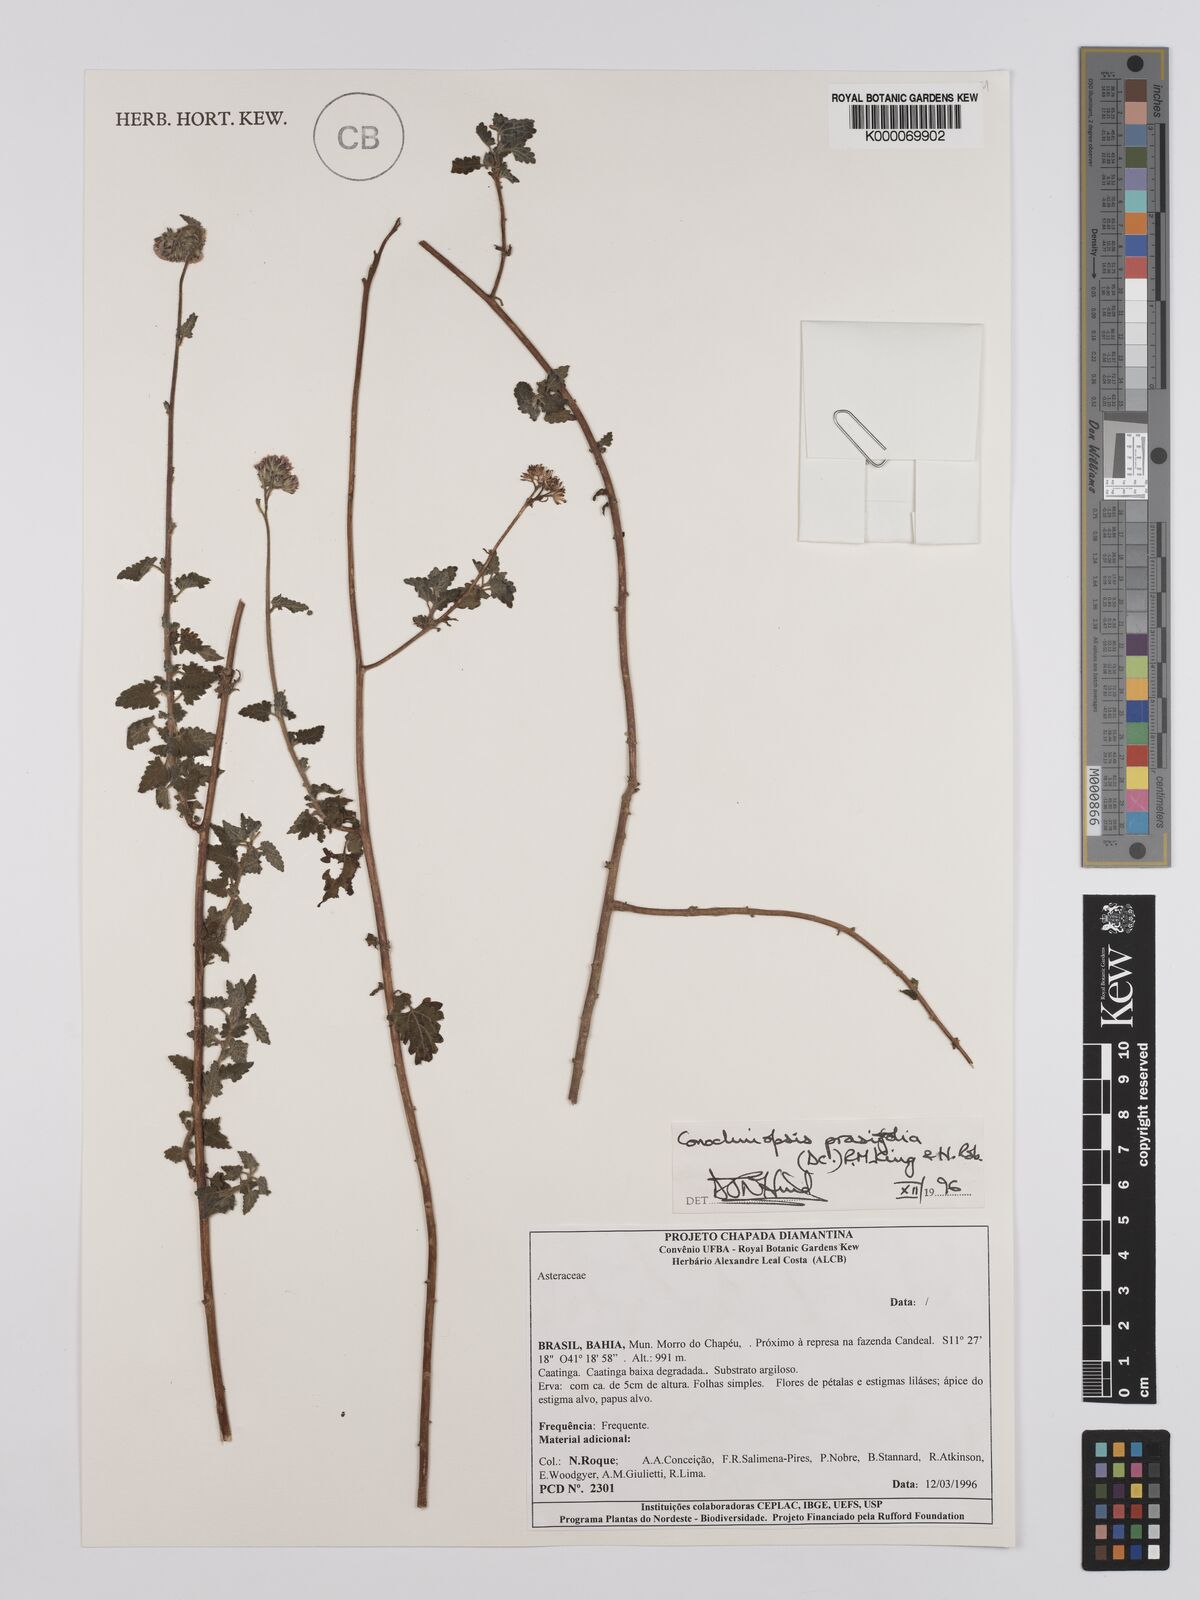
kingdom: Plantae
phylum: Tracheophyta
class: Magnoliopsida
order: Asterales
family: Asteraceae
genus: Conocliniopsis
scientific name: Conocliniopsis grossedentata
